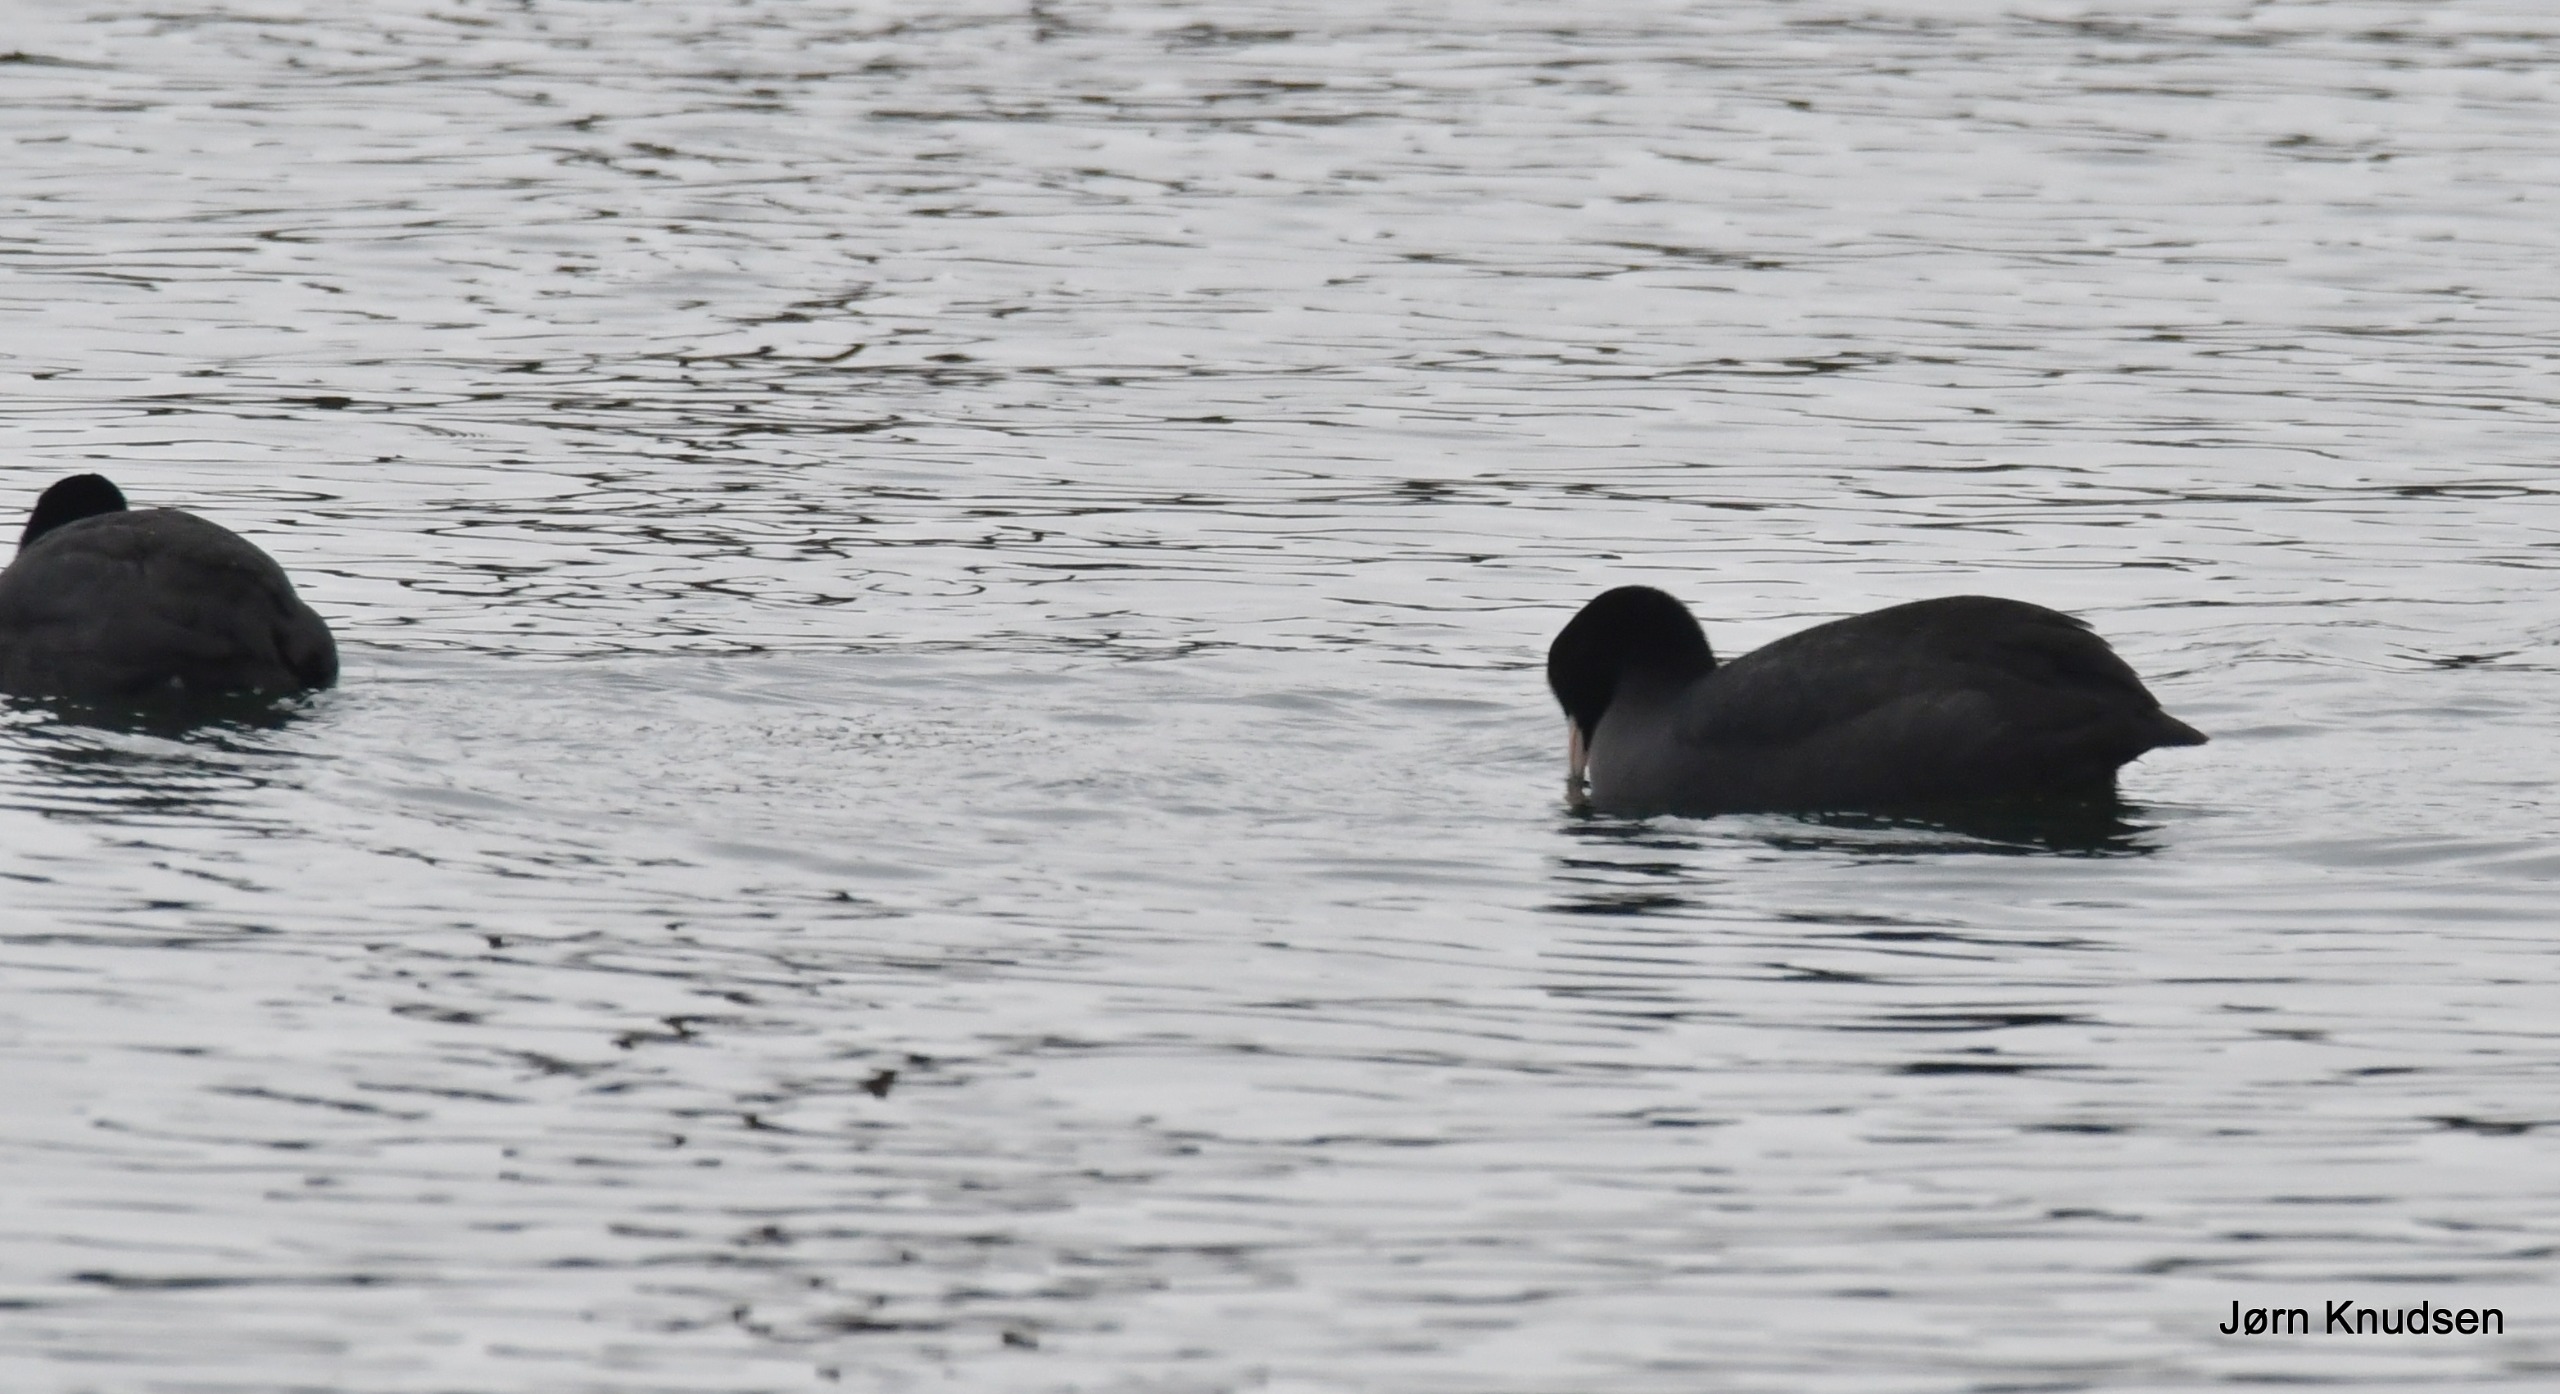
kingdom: Animalia
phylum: Chordata
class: Aves
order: Gruiformes
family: Rallidae
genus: Fulica
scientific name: Fulica atra
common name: Blishøne
